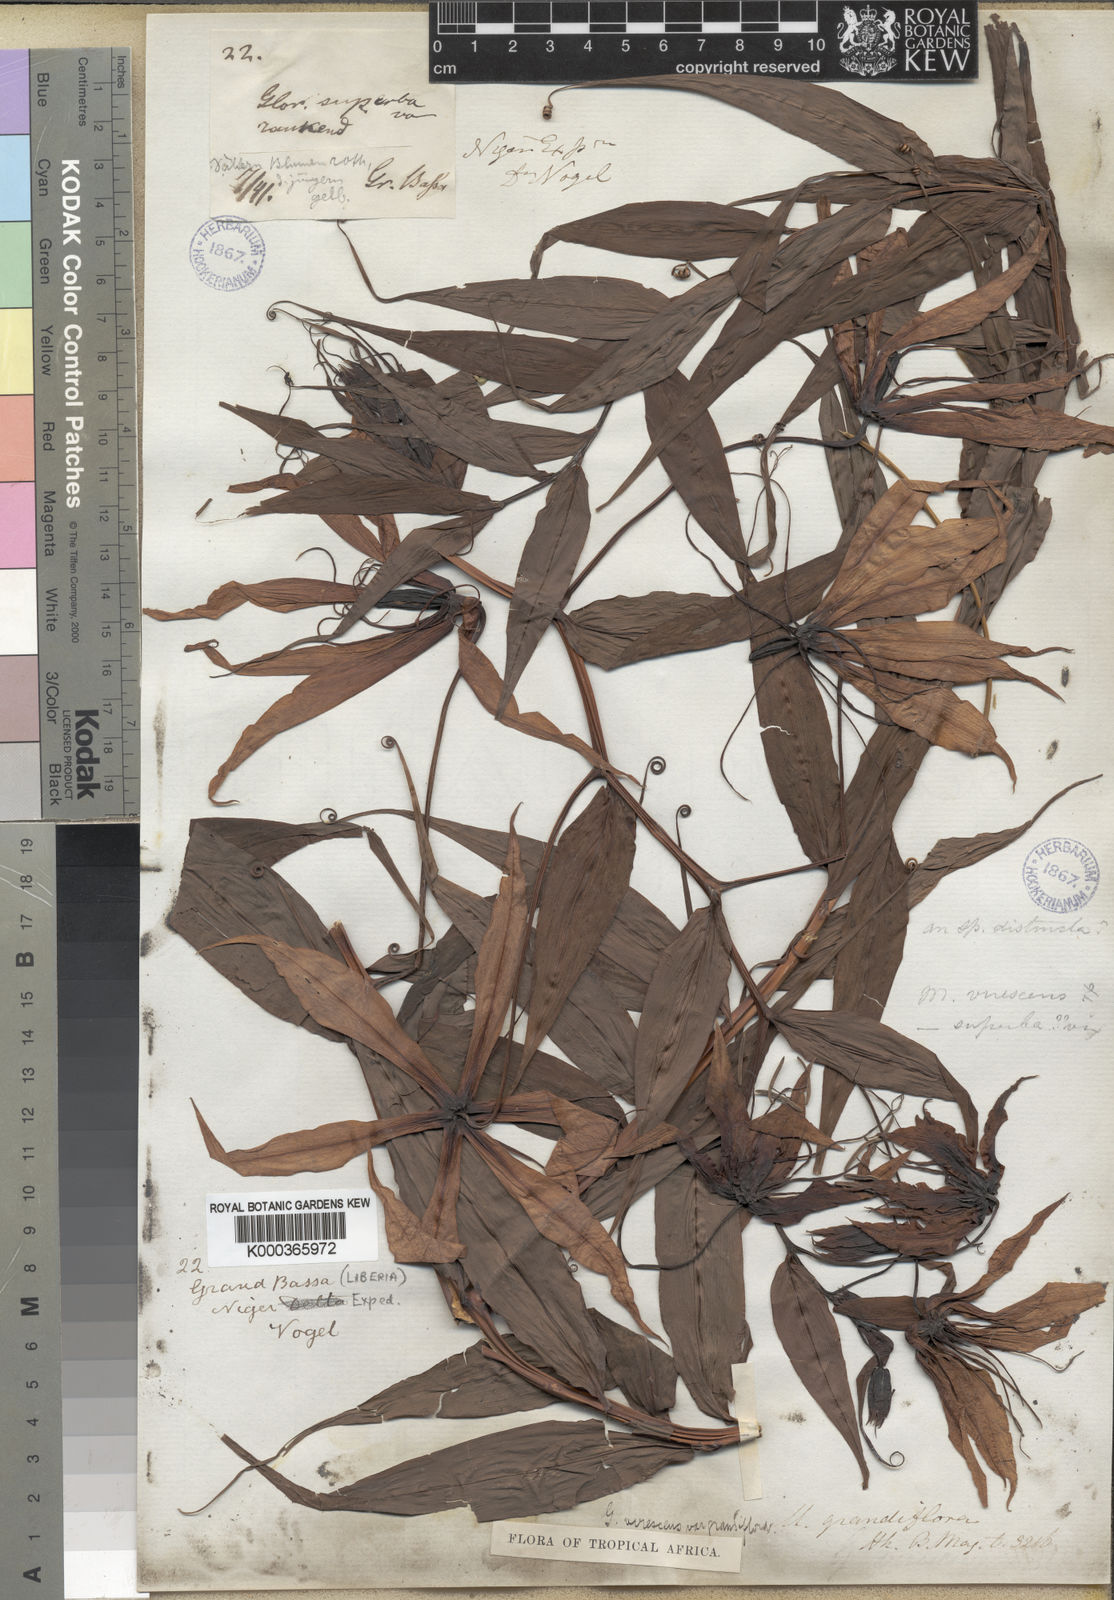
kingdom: Plantae
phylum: Tracheophyta
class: Liliopsida
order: Liliales
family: Colchicaceae
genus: Gloriosa
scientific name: Gloriosa simplex
